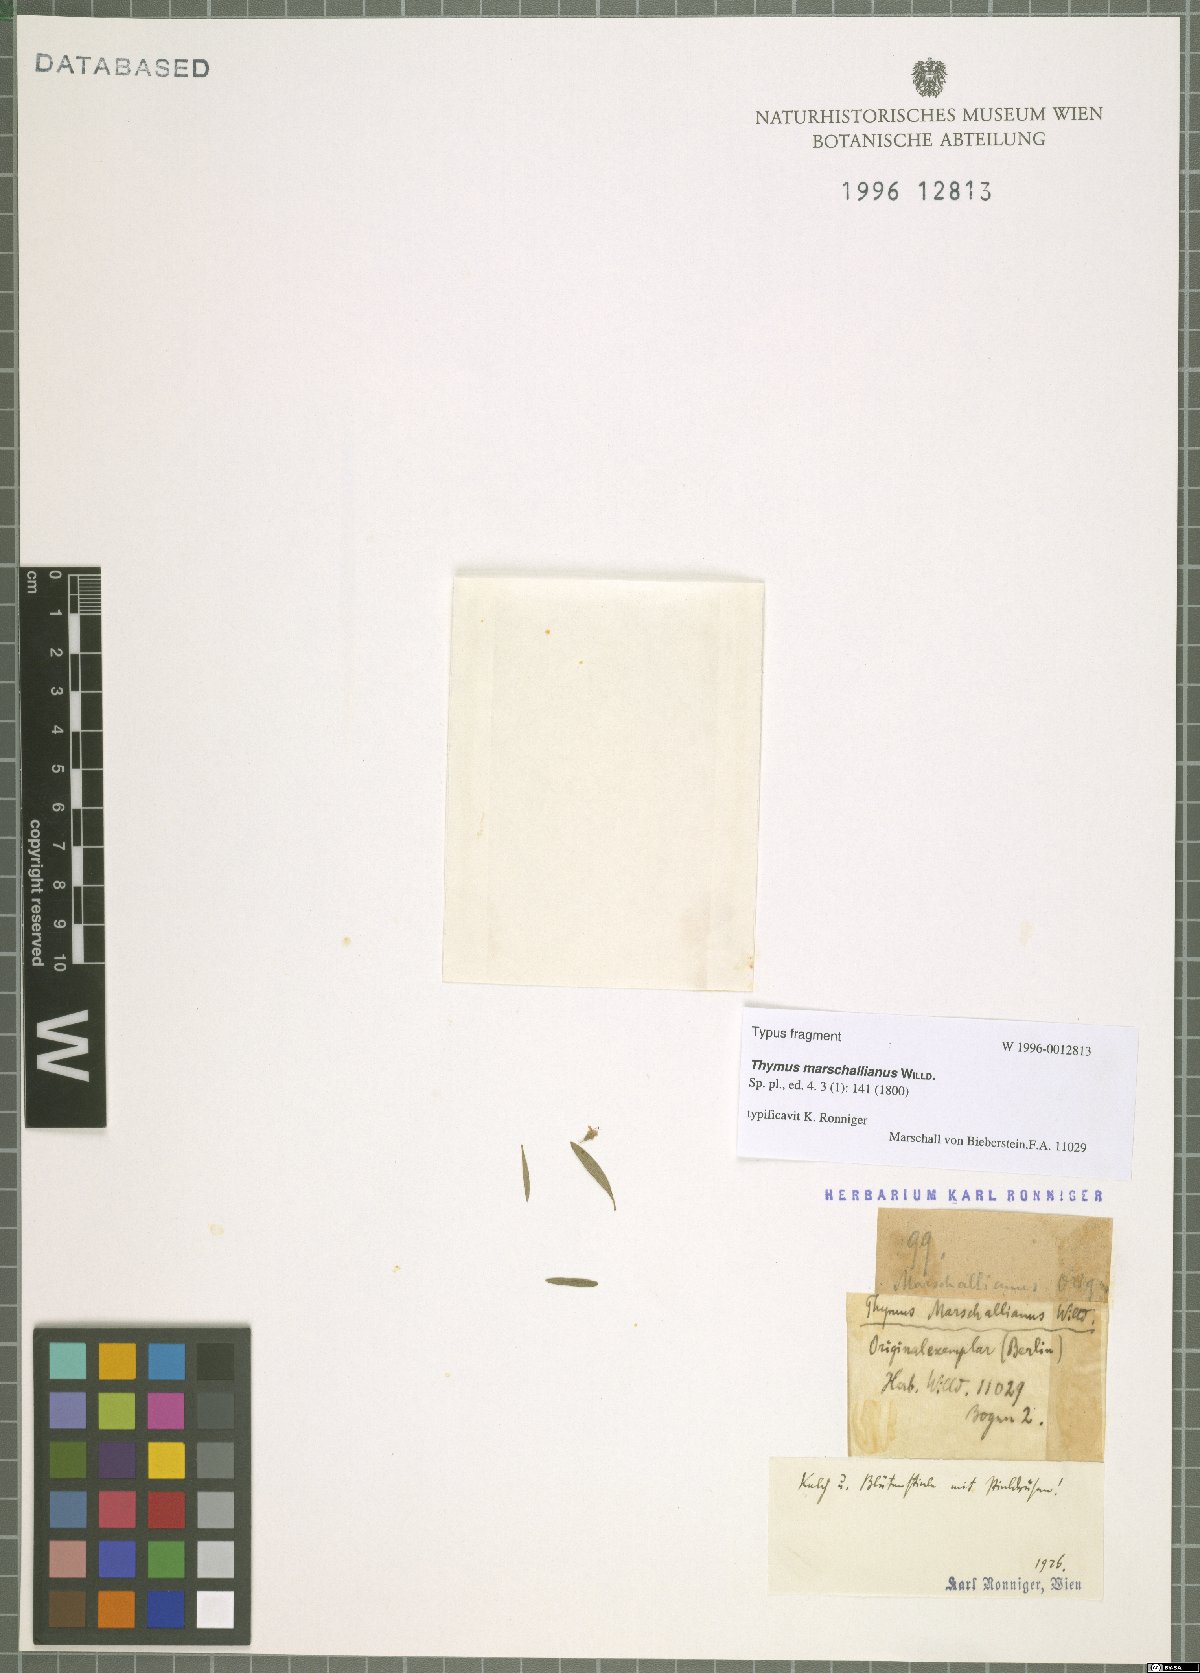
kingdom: Plantae
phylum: Tracheophyta
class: Magnoliopsida
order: Lamiales
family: Lamiaceae
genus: Thymus
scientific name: Thymus pannonicus
